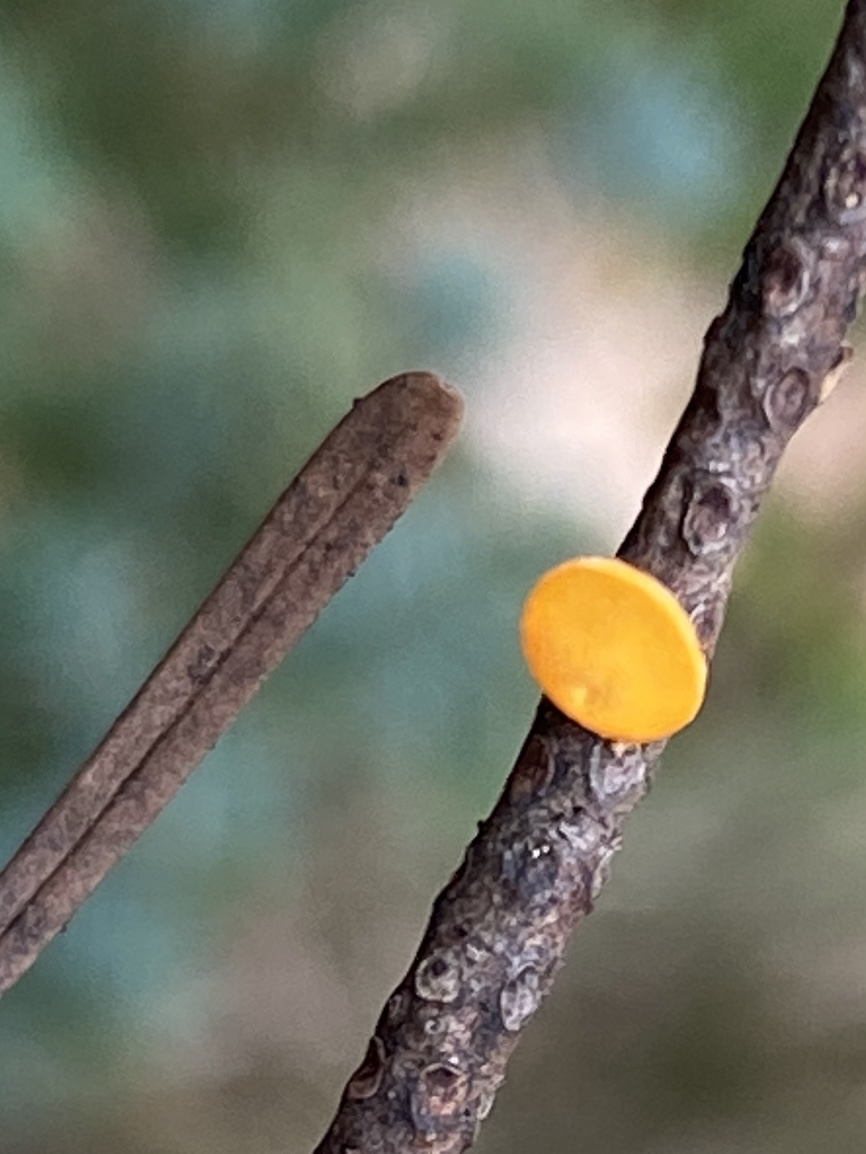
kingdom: Fungi
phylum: Ascomycota
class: Pezizomycetes
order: Pezizales
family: Sarcoscyphaceae
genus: Pithya
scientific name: Pithya vulgaris
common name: stor dukatbæger
